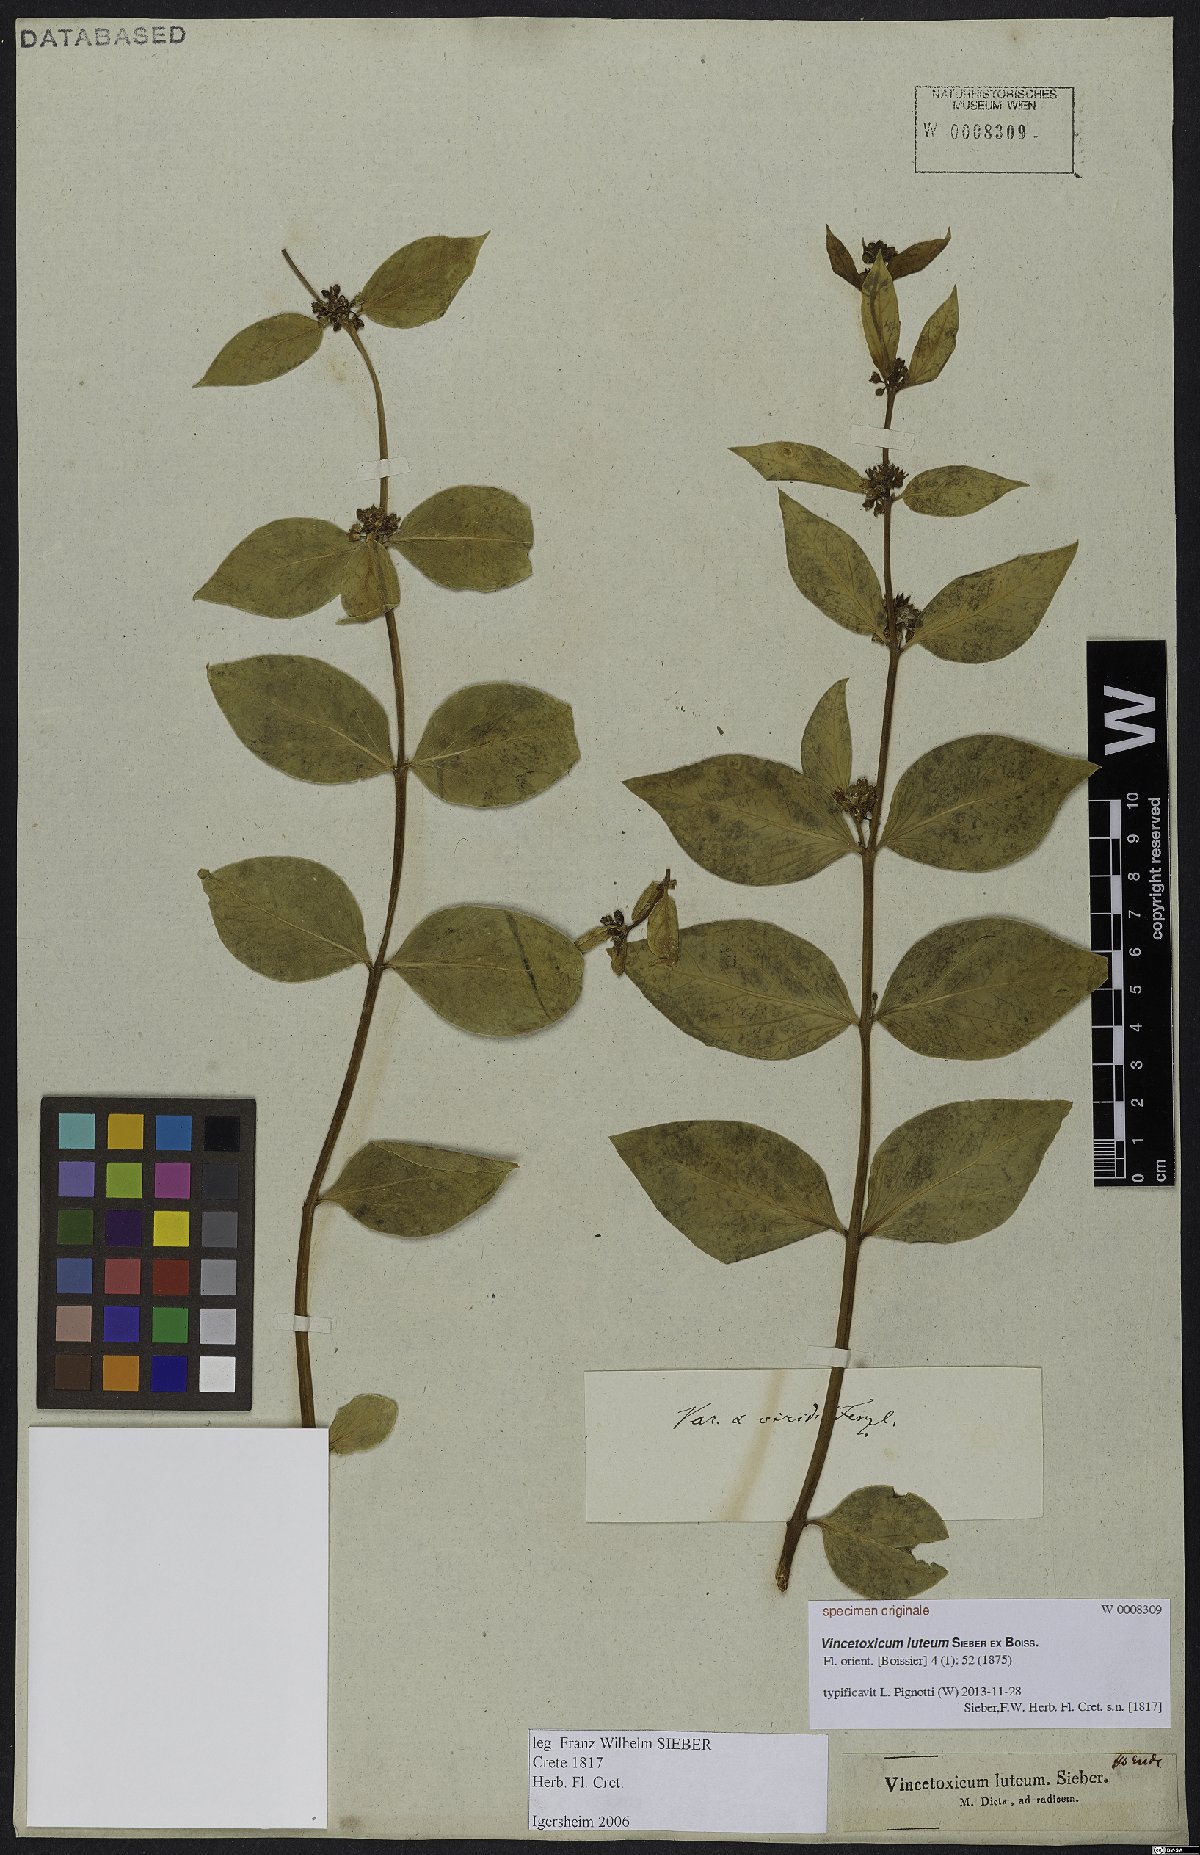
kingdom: Plantae
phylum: Tracheophyta
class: Magnoliopsida
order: Gentianales
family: Apocynaceae
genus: Vincetoxicum
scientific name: Vincetoxicum canescens
